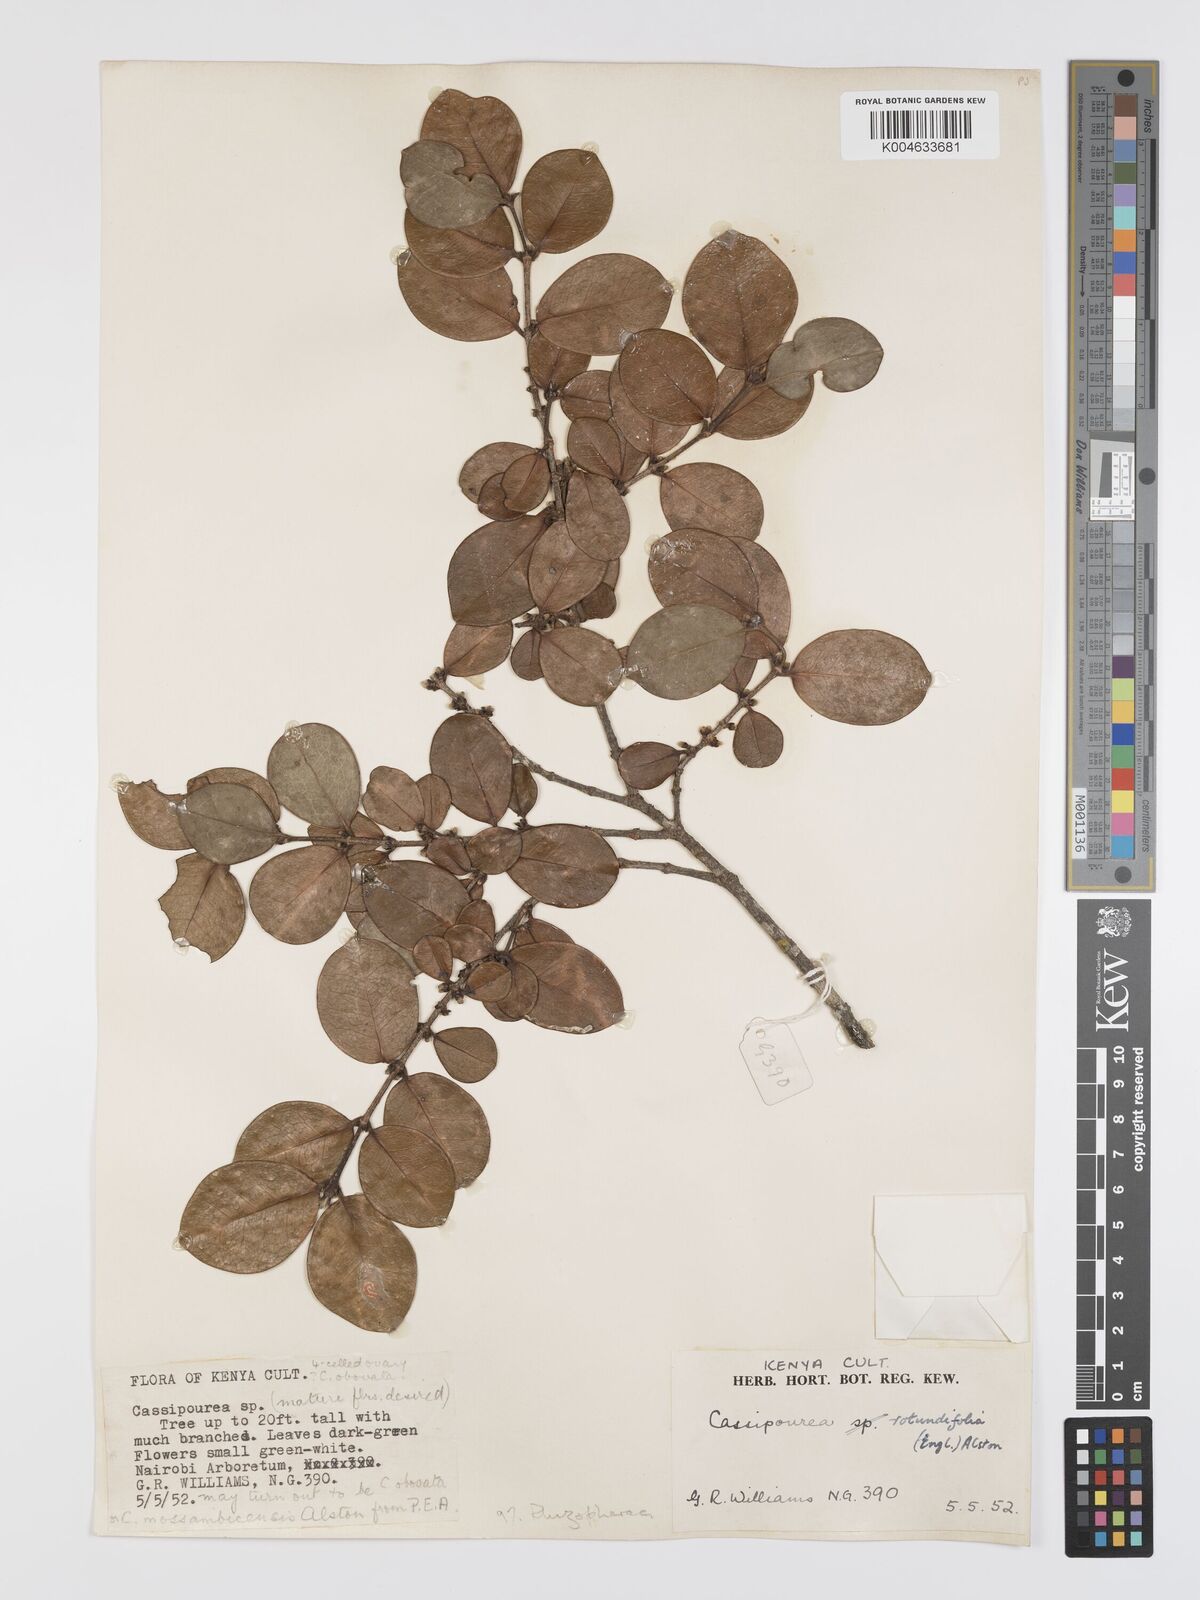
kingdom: Plantae
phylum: Tracheophyta
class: Magnoliopsida
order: Malpighiales
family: Rhizophoraceae
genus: Cassipourea
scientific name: Cassipourea rotundifolia
